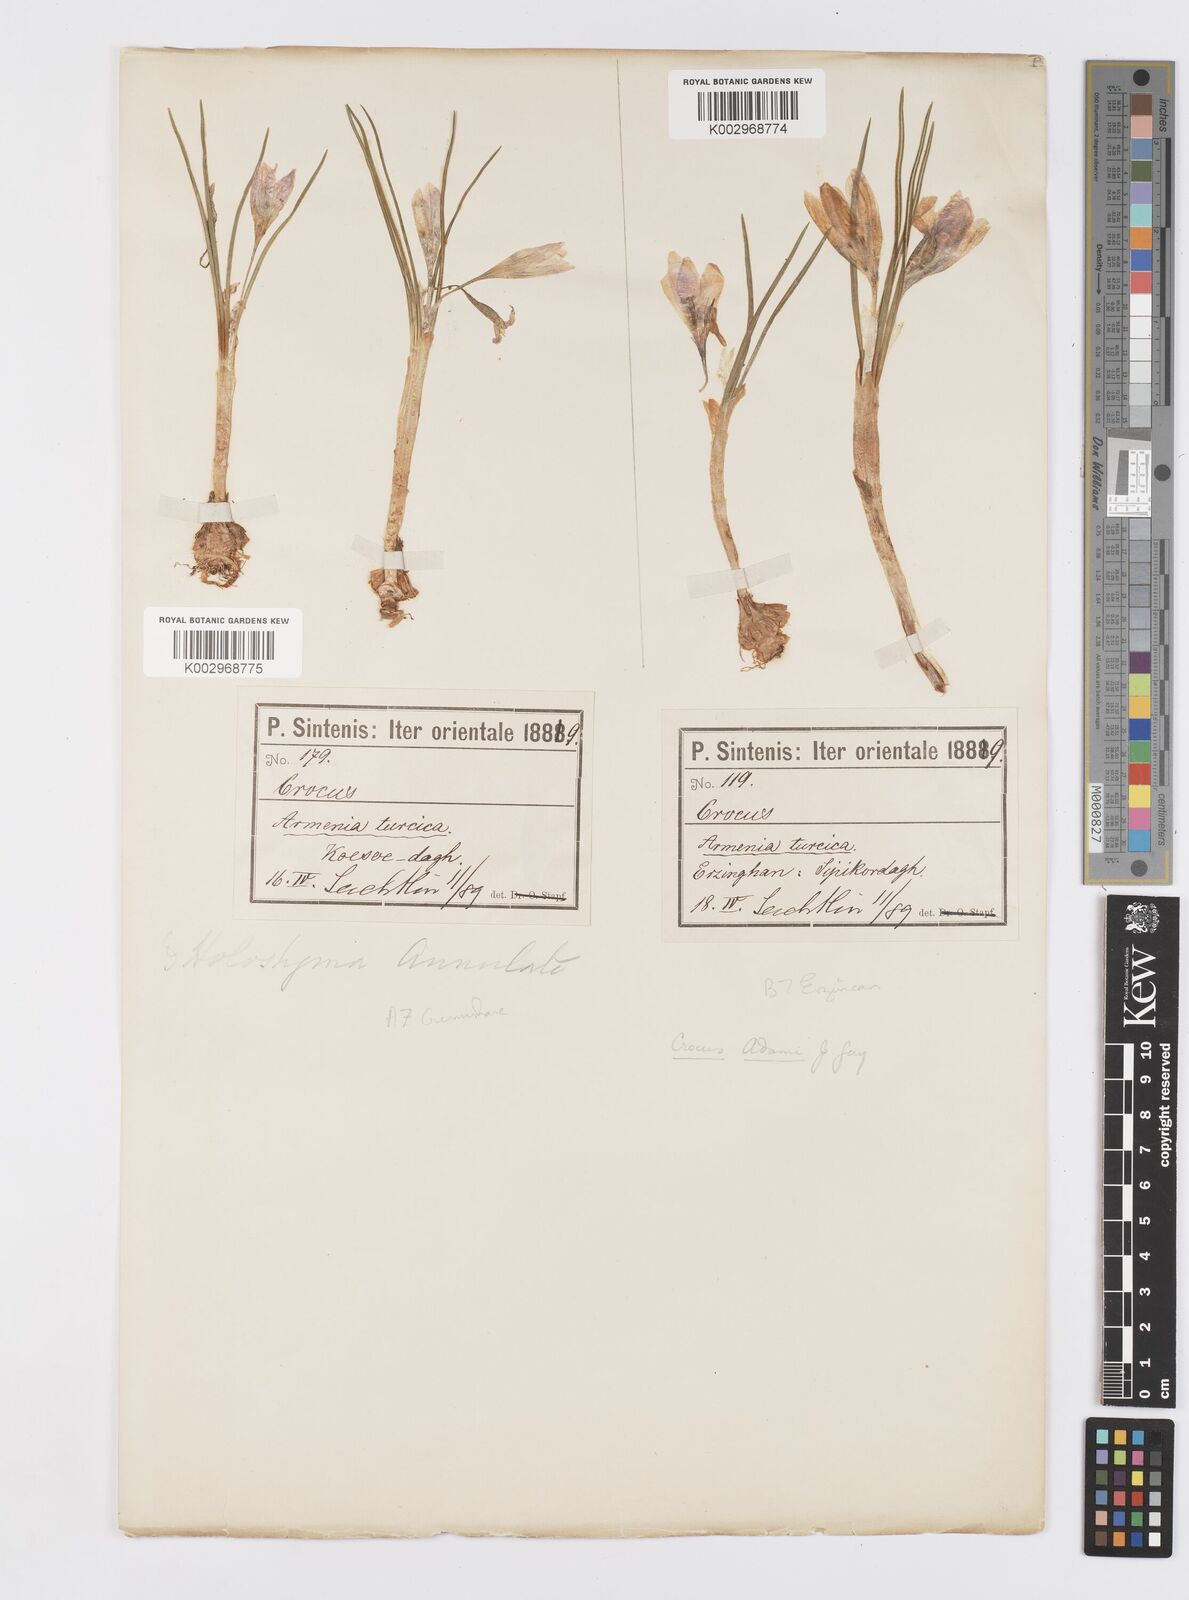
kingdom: Plantae
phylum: Tracheophyta
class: Liliopsida
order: Asparagales
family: Iridaceae
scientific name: Iridaceae
